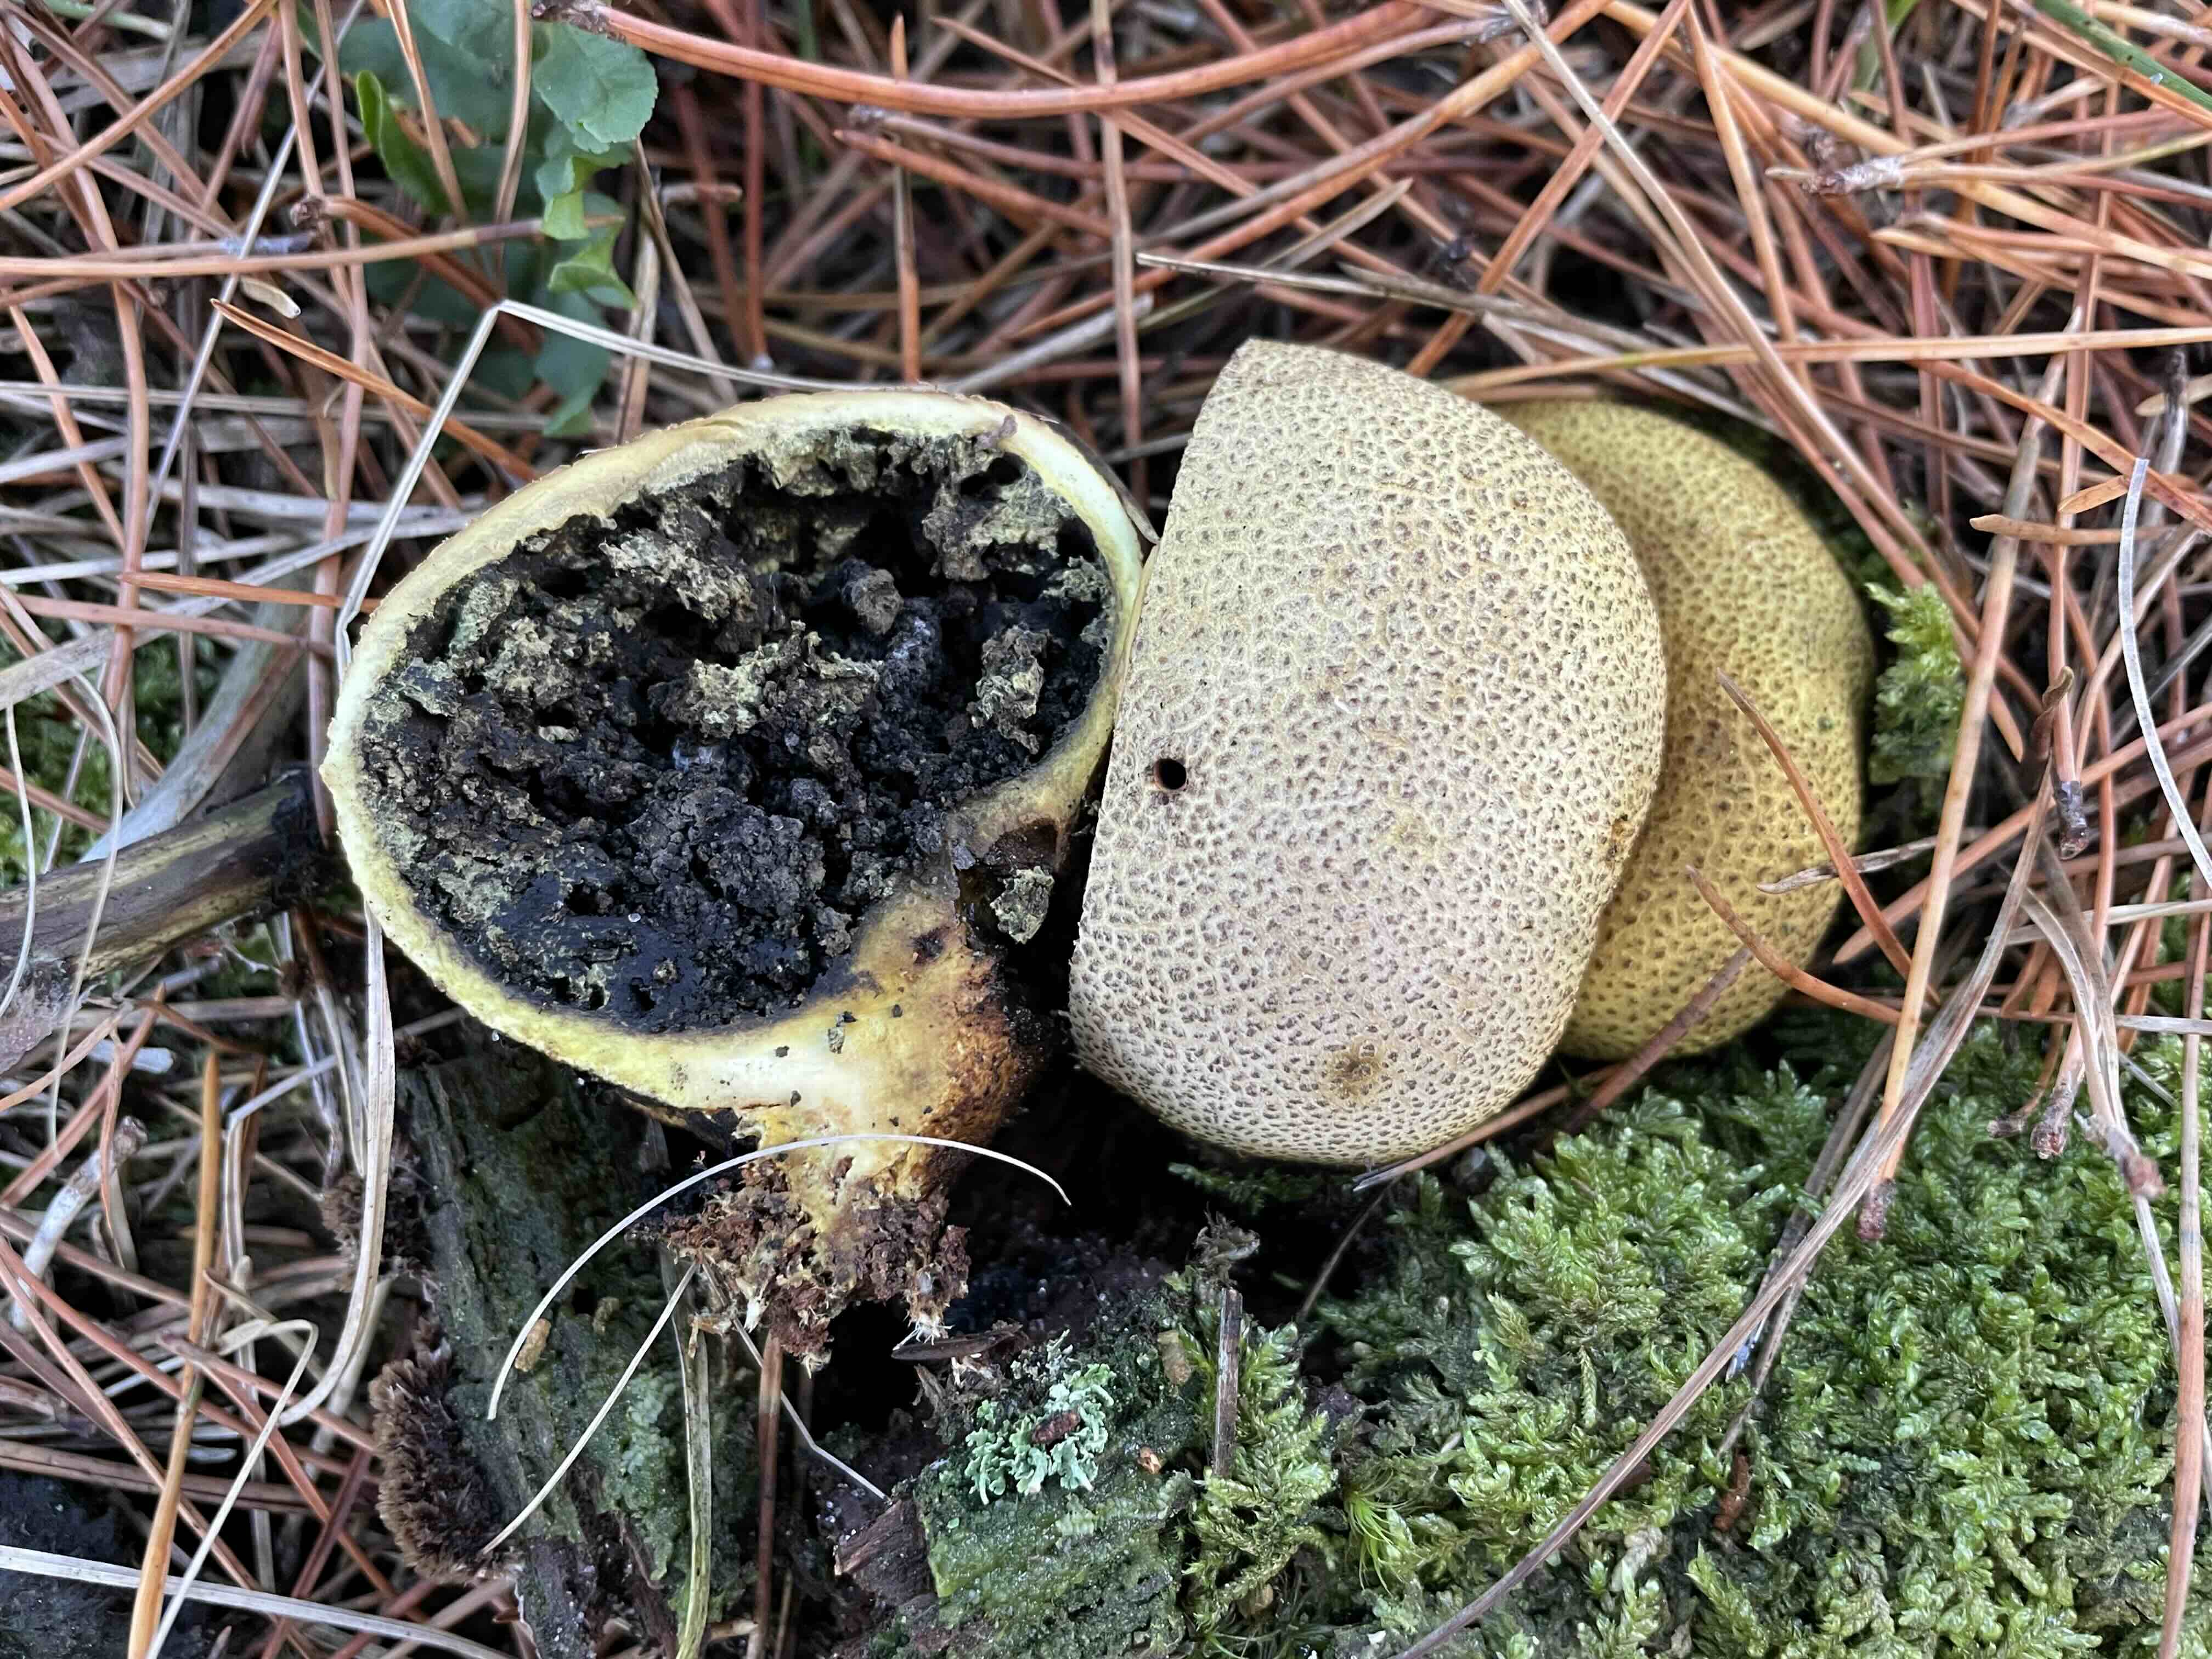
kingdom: Fungi
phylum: Basidiomycota
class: Agaricomycetes
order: Boletales
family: Sclerodermataceae
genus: Scleroderma
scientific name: Scleroderma citrinum
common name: almindelig bruskbold
